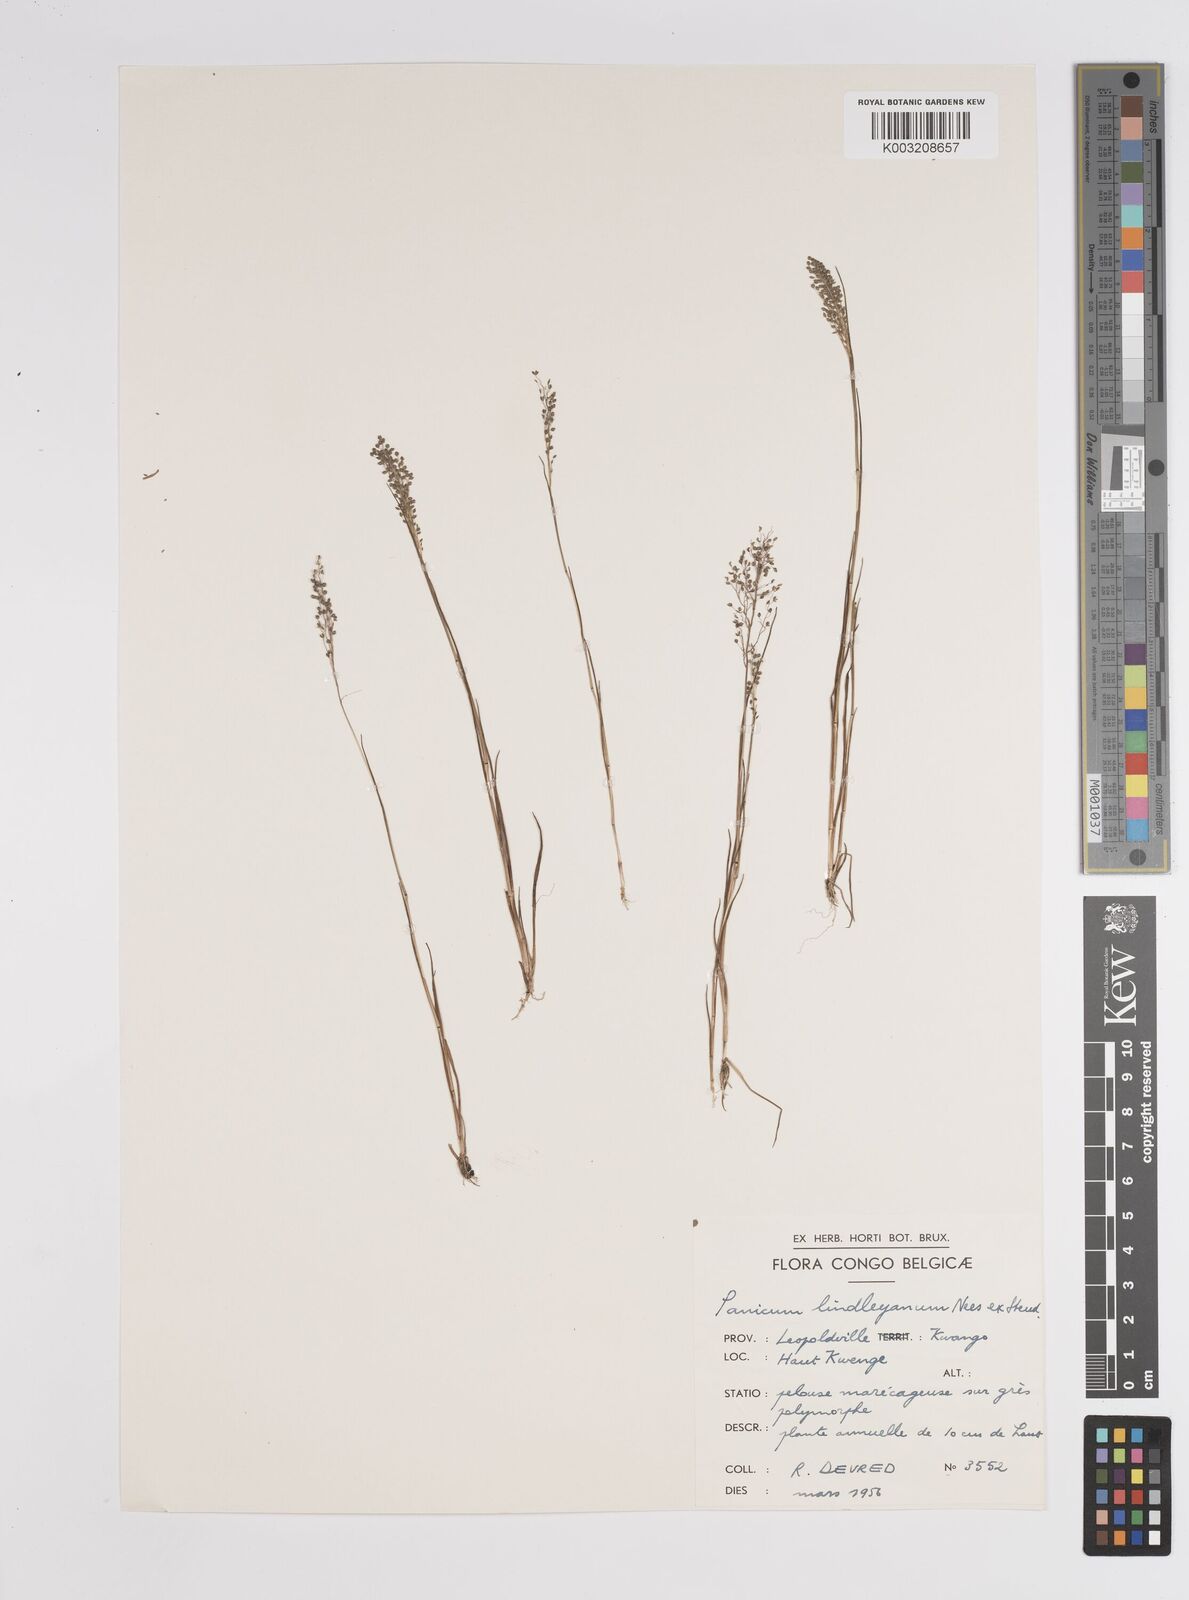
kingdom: Plantae
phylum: Tracheophyta
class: Liliopsida
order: Poales
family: Poaceae
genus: Panicum
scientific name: Panicum
